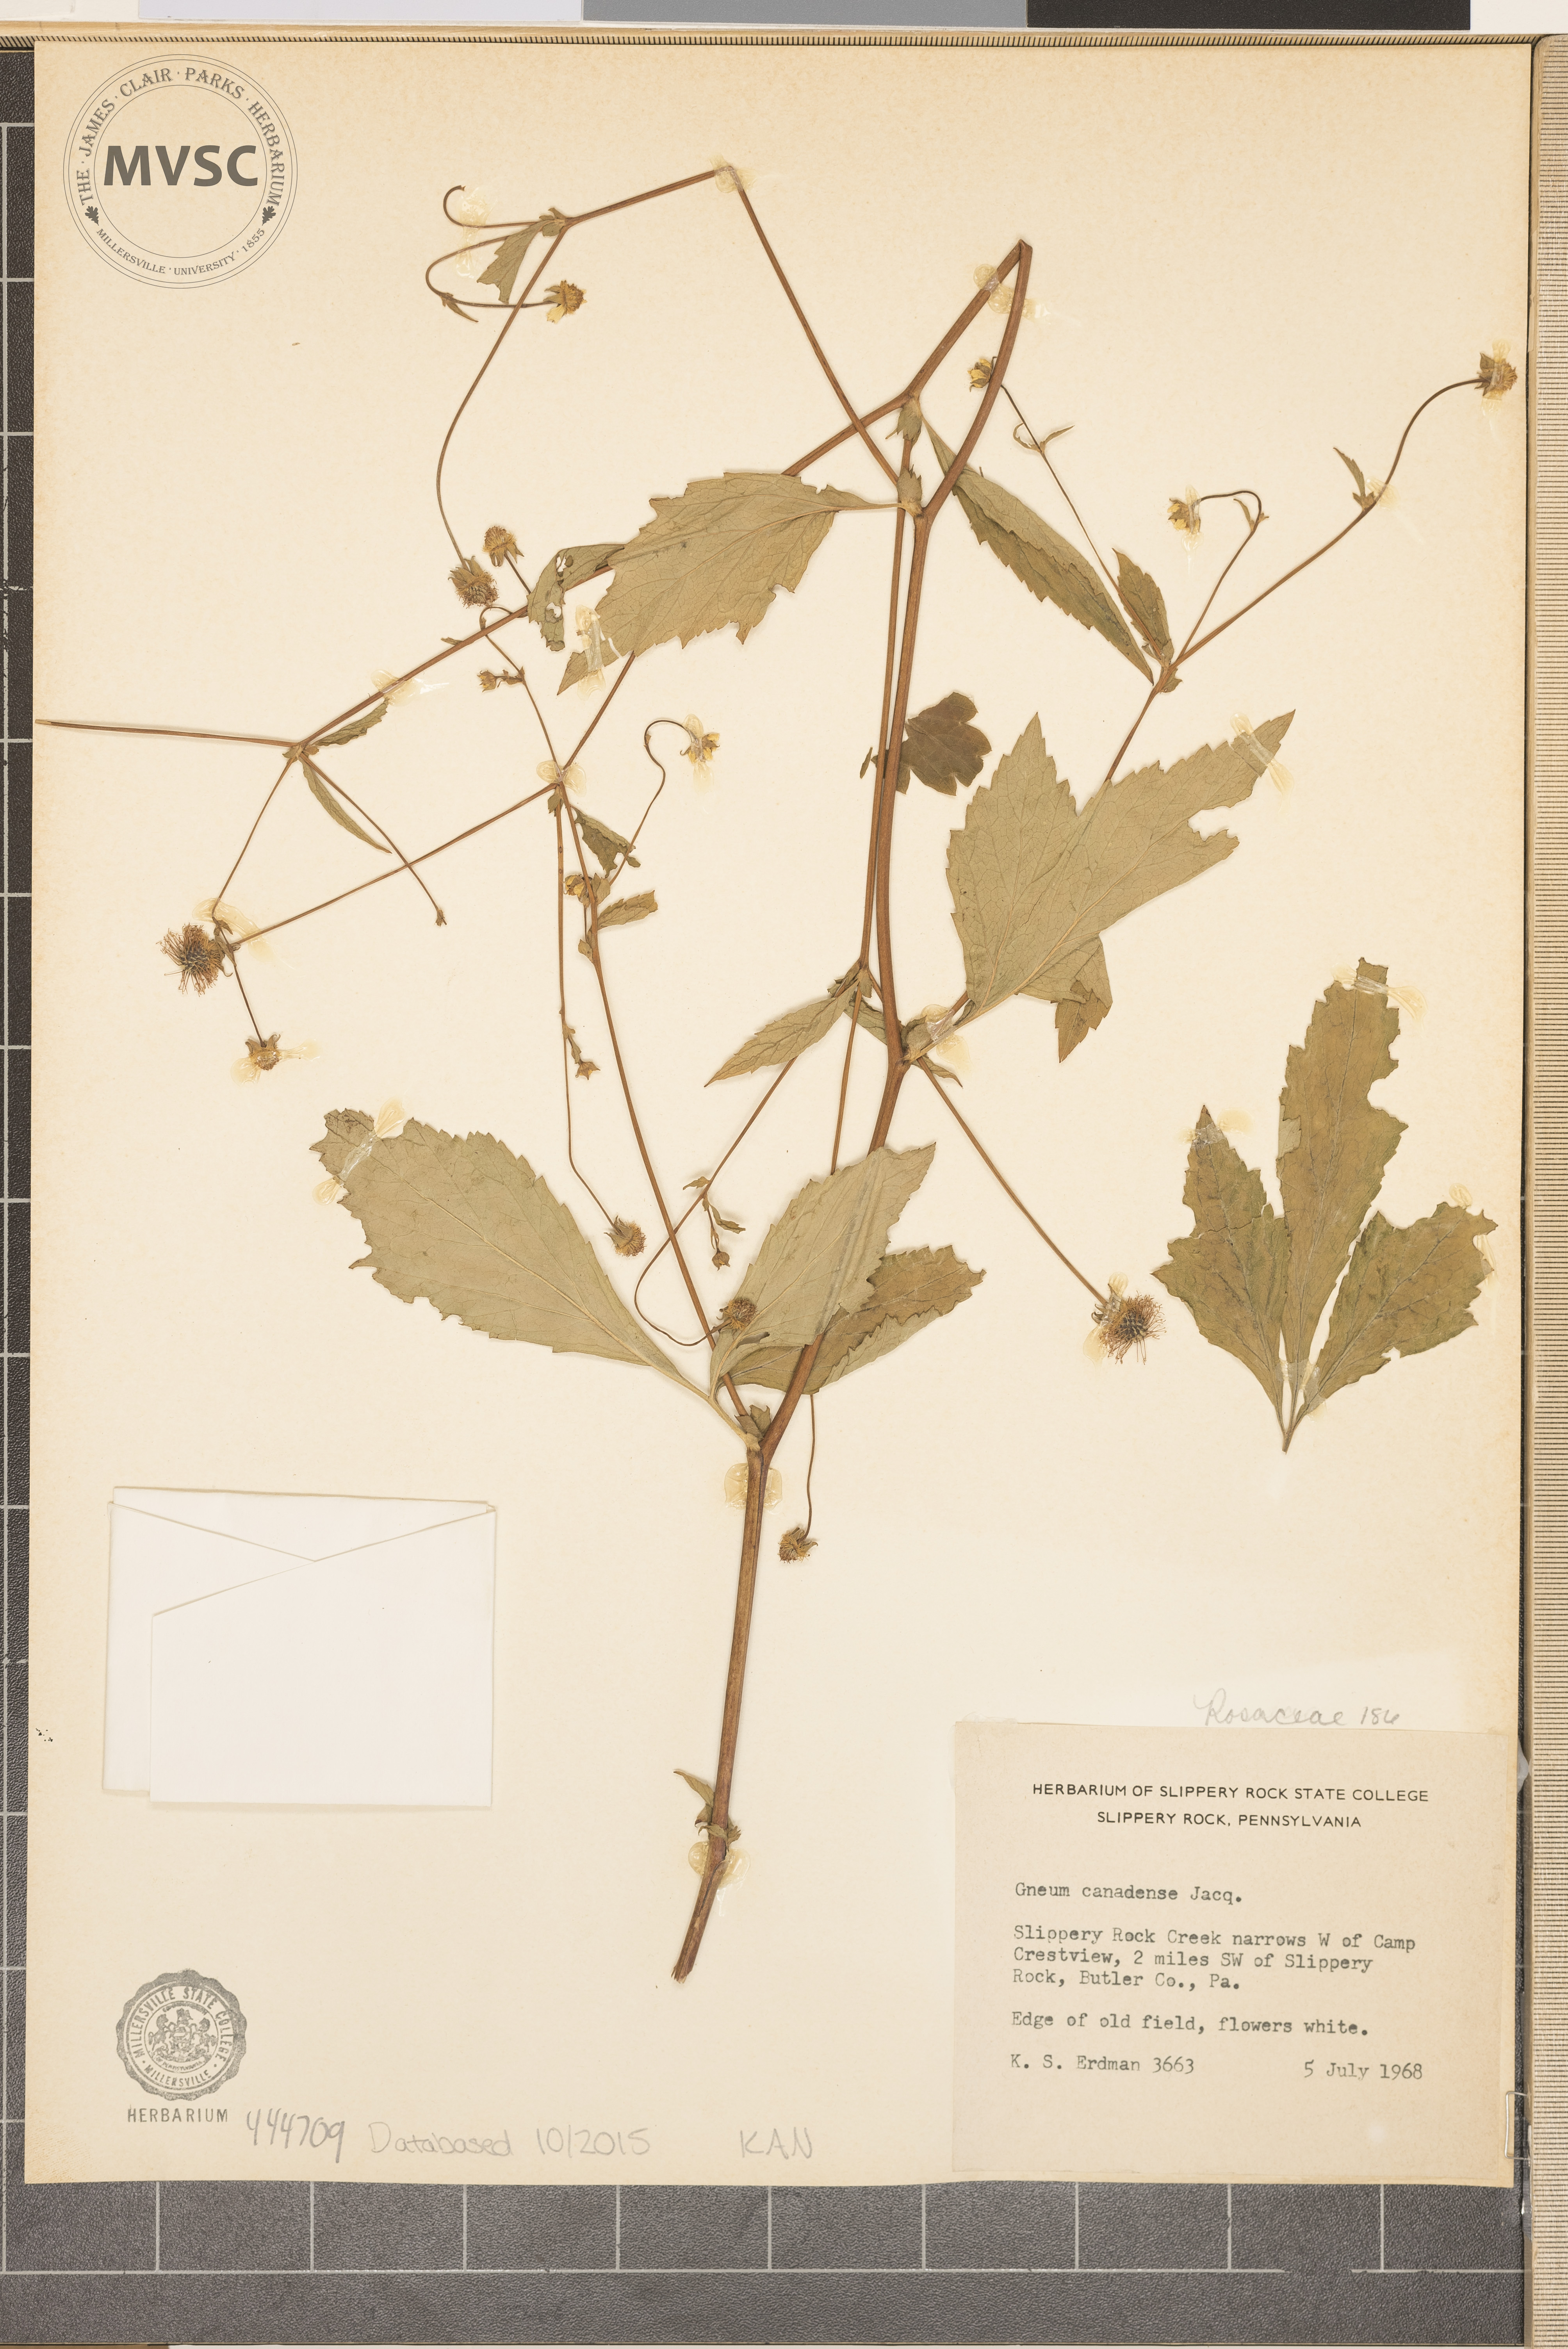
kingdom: Plantae
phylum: Tracheophyta
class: Magnoliopsida
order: Rosales
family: Rosaceae
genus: Geum
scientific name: Geum canadense
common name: White avens
